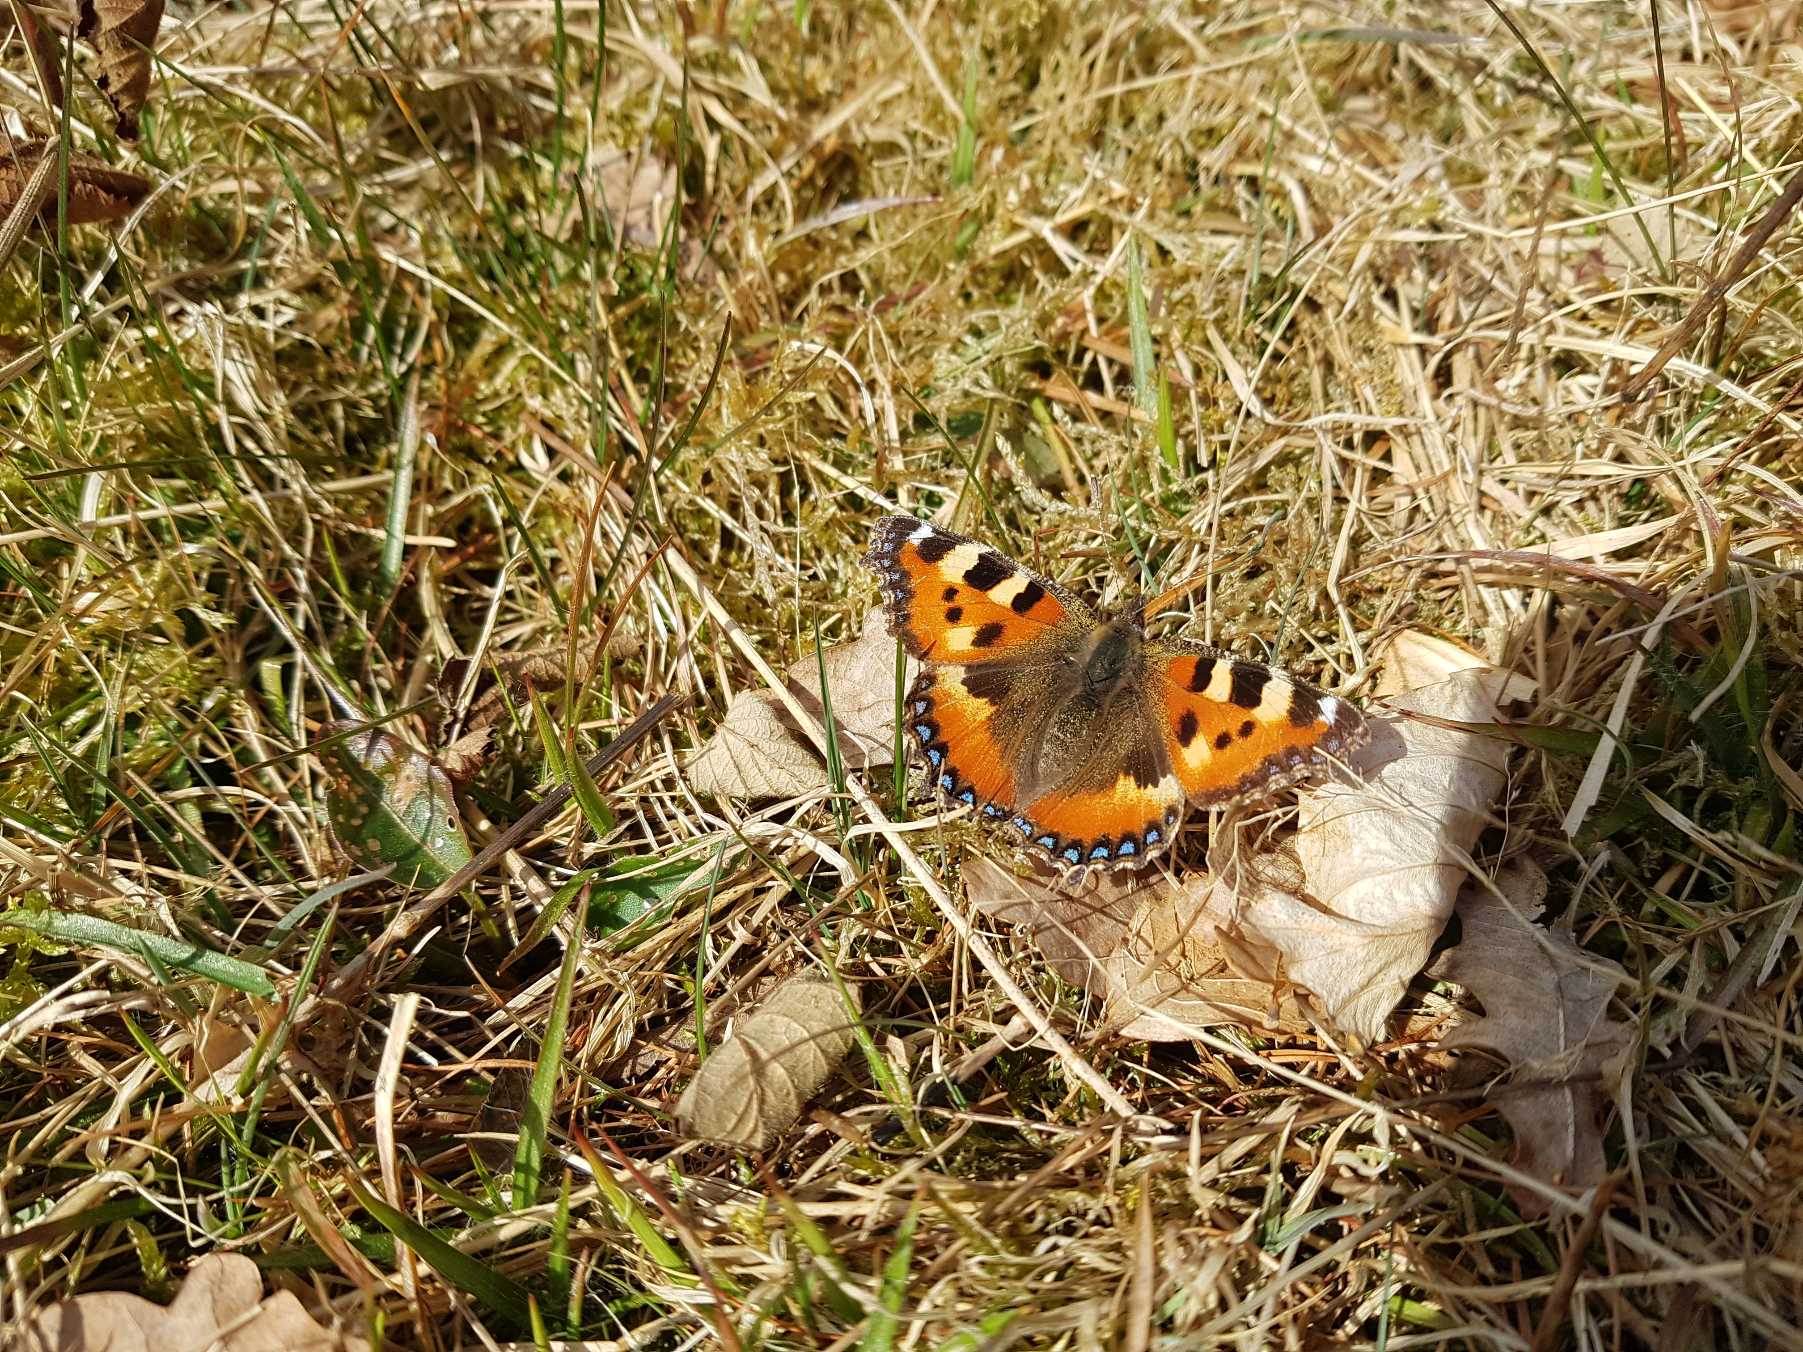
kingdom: Animalia
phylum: Arthropoda
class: Insecta
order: Lepidoptera
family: Nymphalidae
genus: Aglais
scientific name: Aglais urticae
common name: Nældens takvinge
